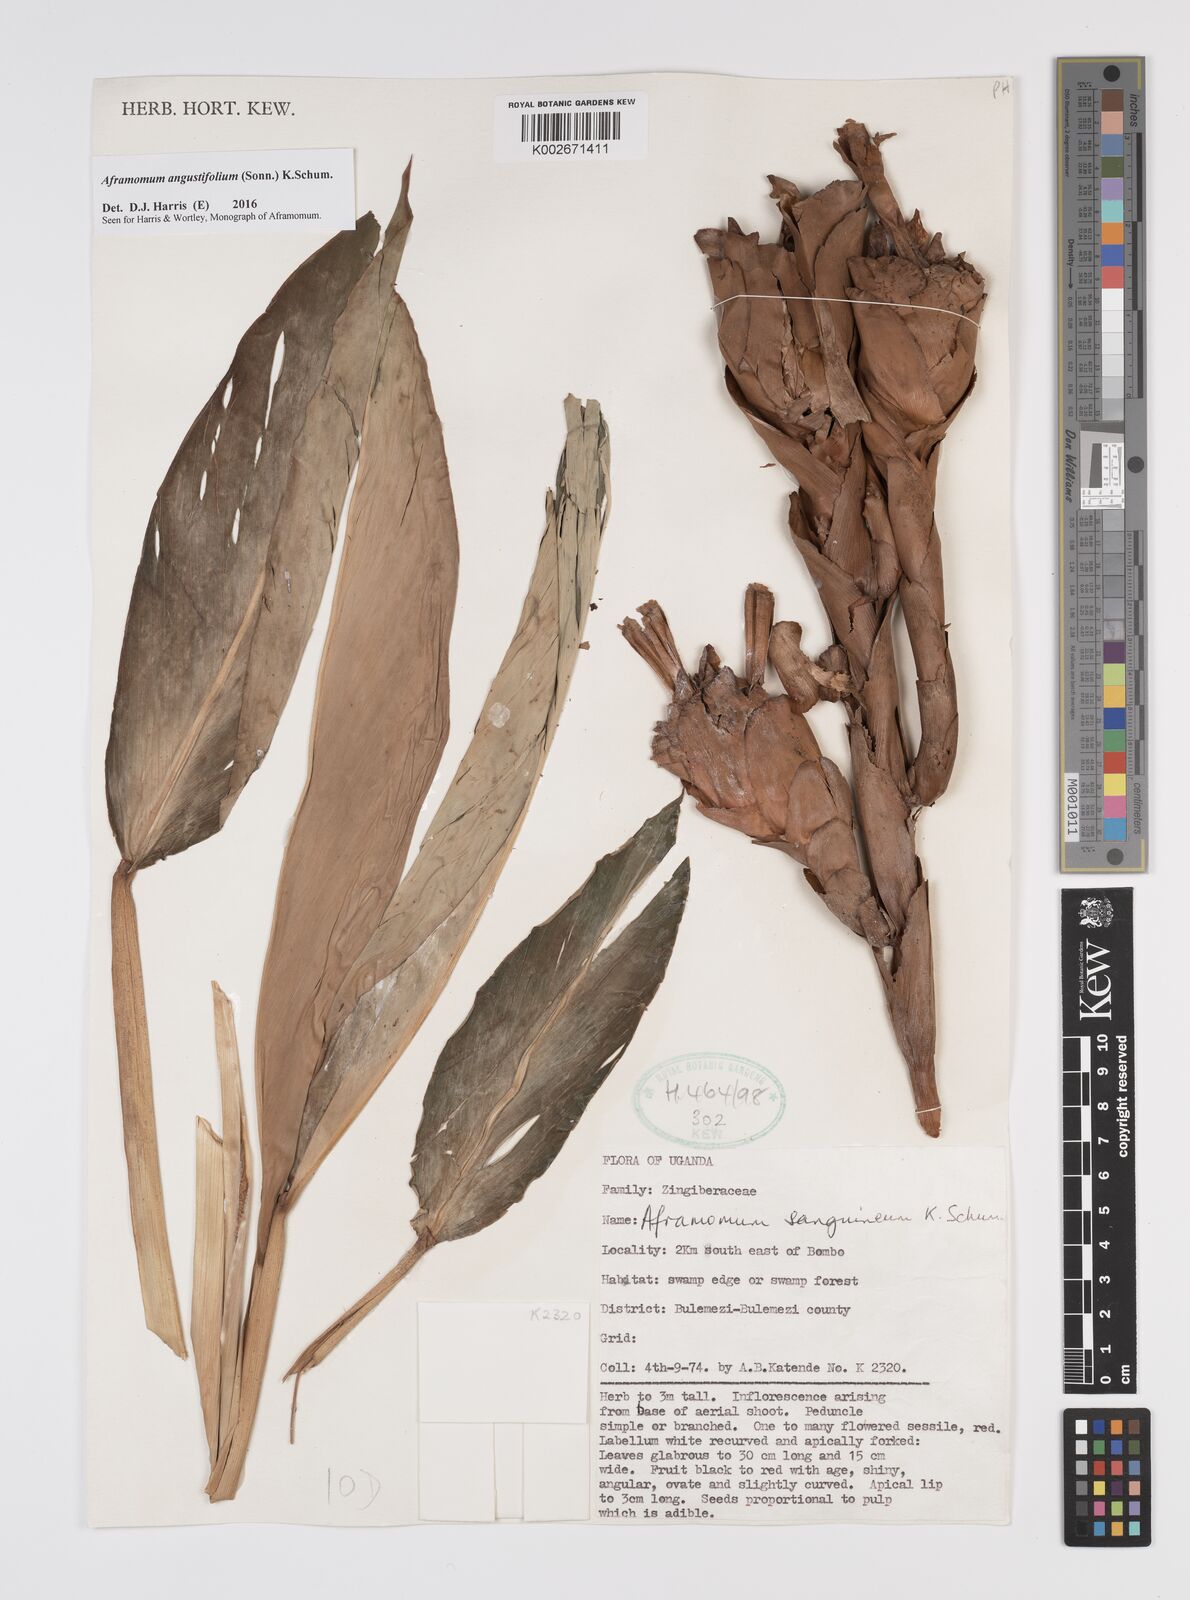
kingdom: Plantae
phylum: Tracheophyta
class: Liliopsida
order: Zingiberales
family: Zingiberaceae
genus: Aframomum
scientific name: Aframomum angustifolium
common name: Guinea grains
